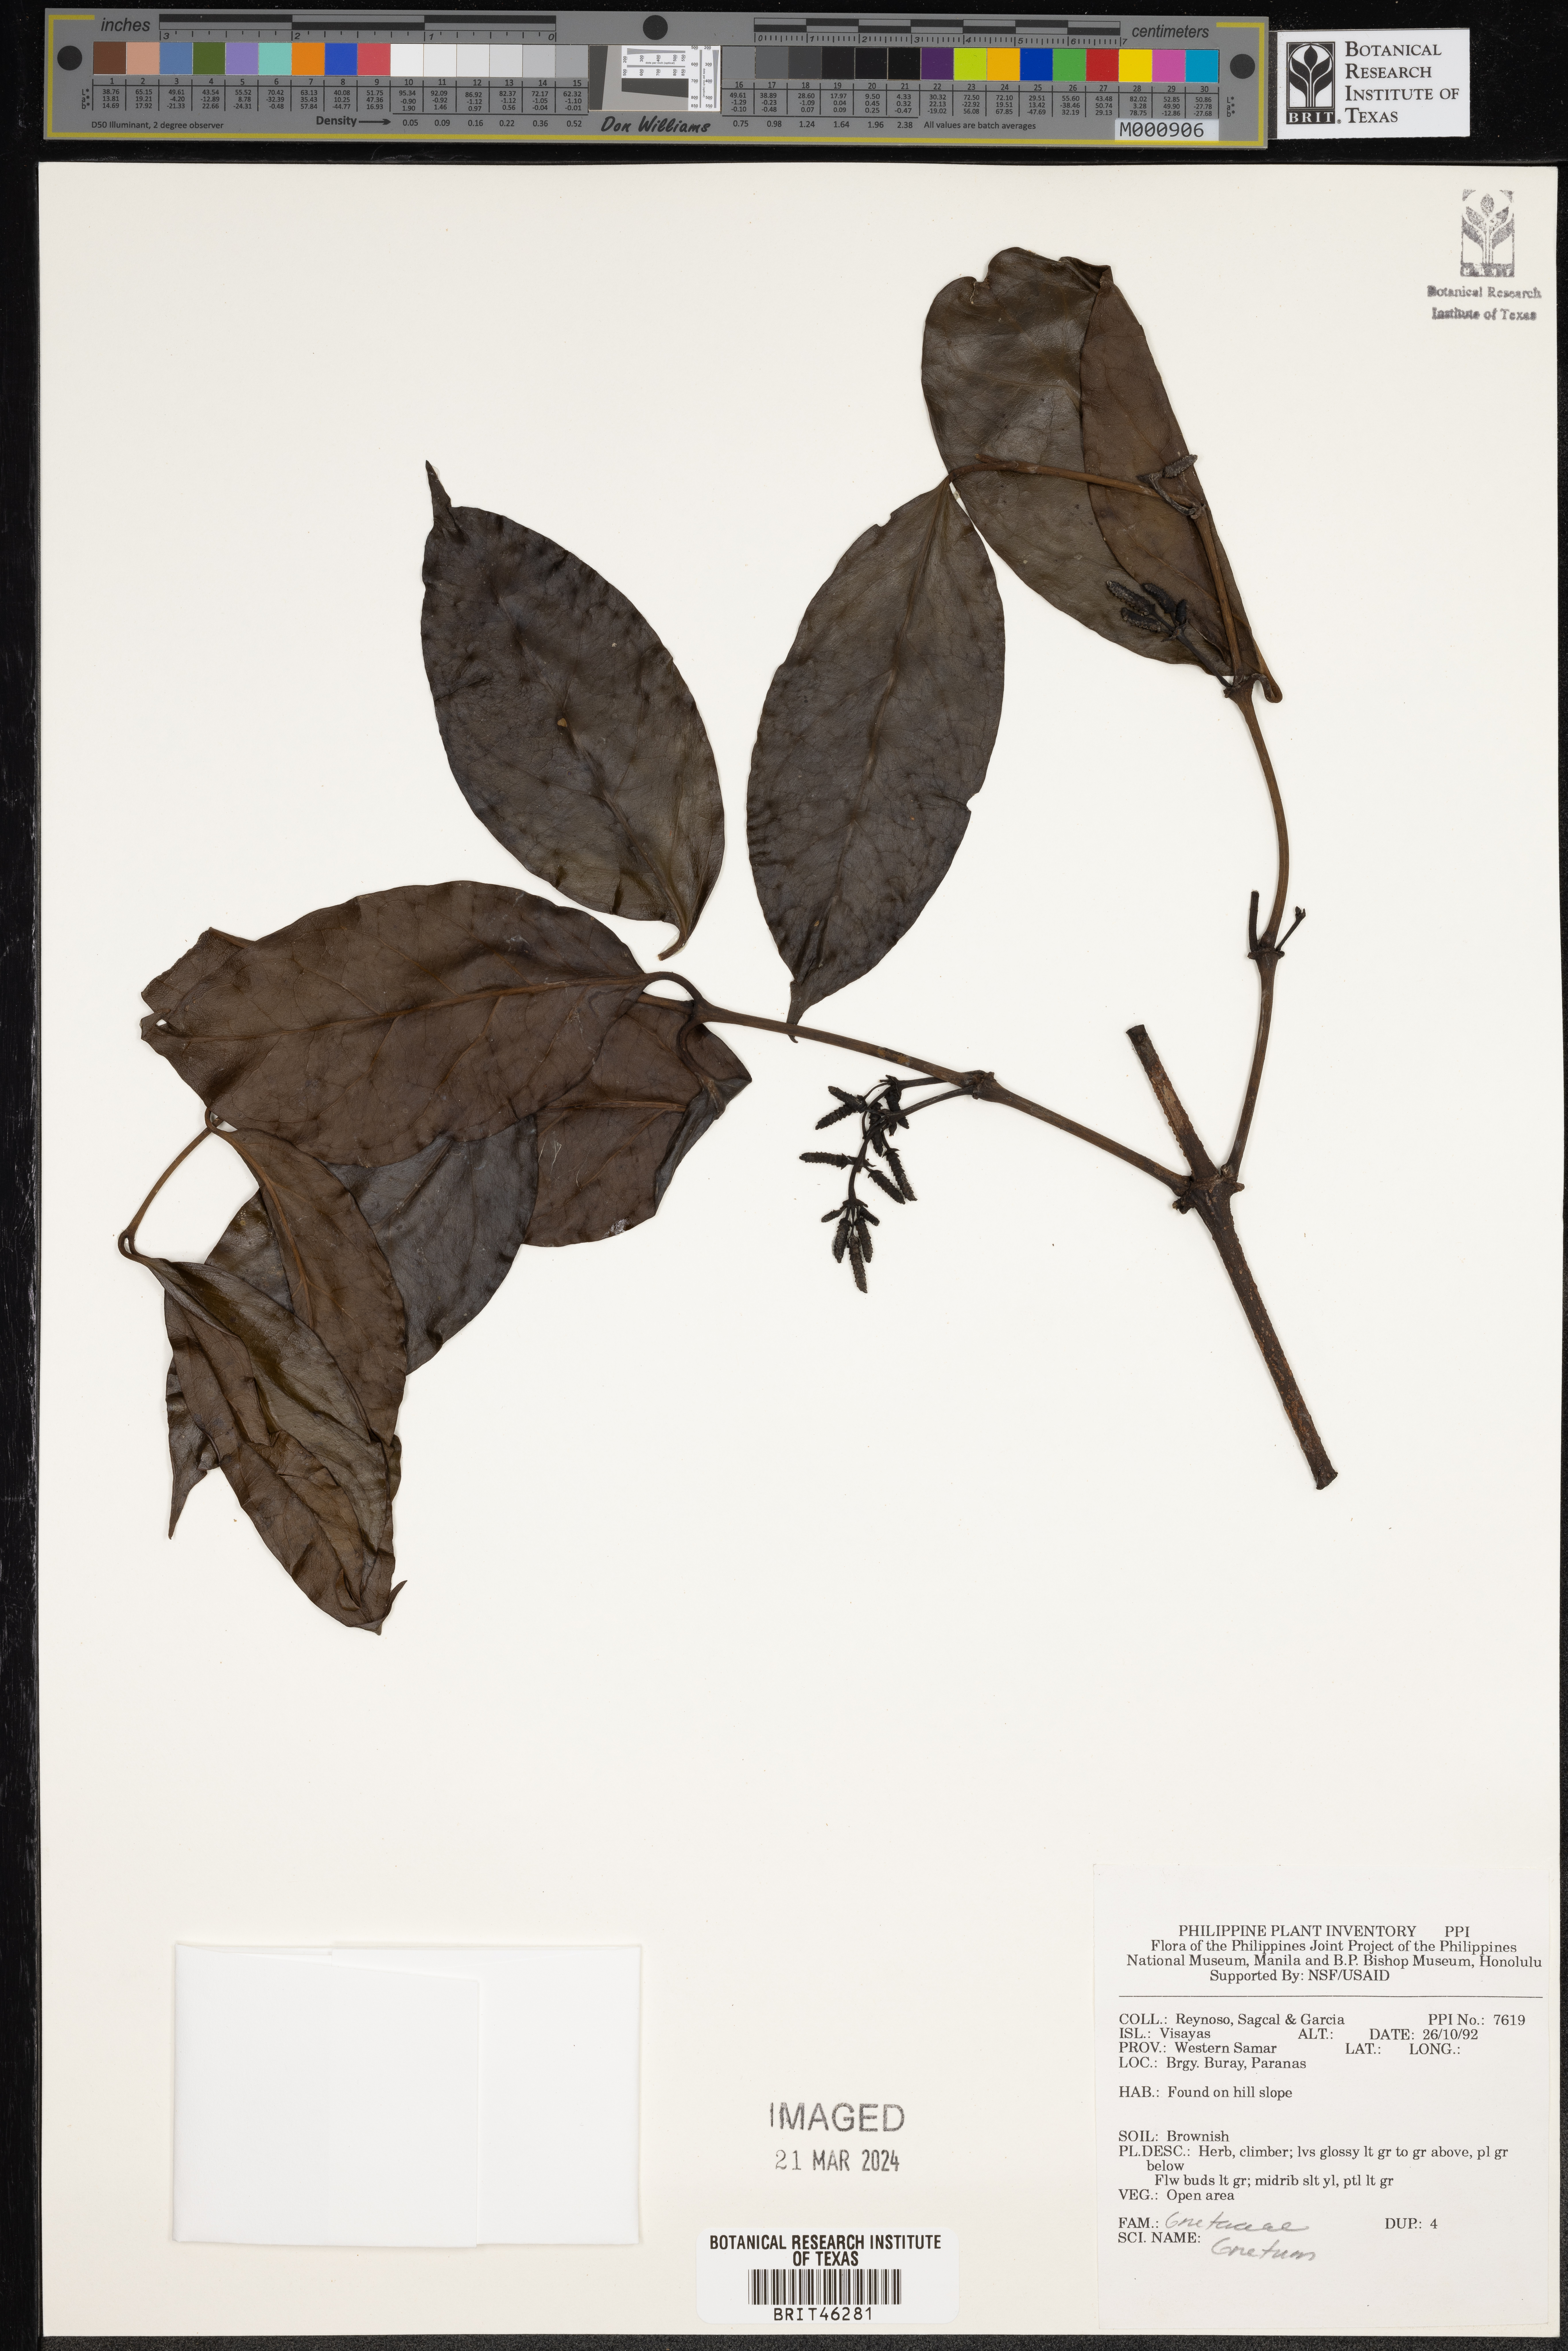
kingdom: Plantae
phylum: Tracheophyta
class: Gnetopsida
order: Gnetales
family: Gnetaceae
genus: Gnetum
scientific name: Gnetum
